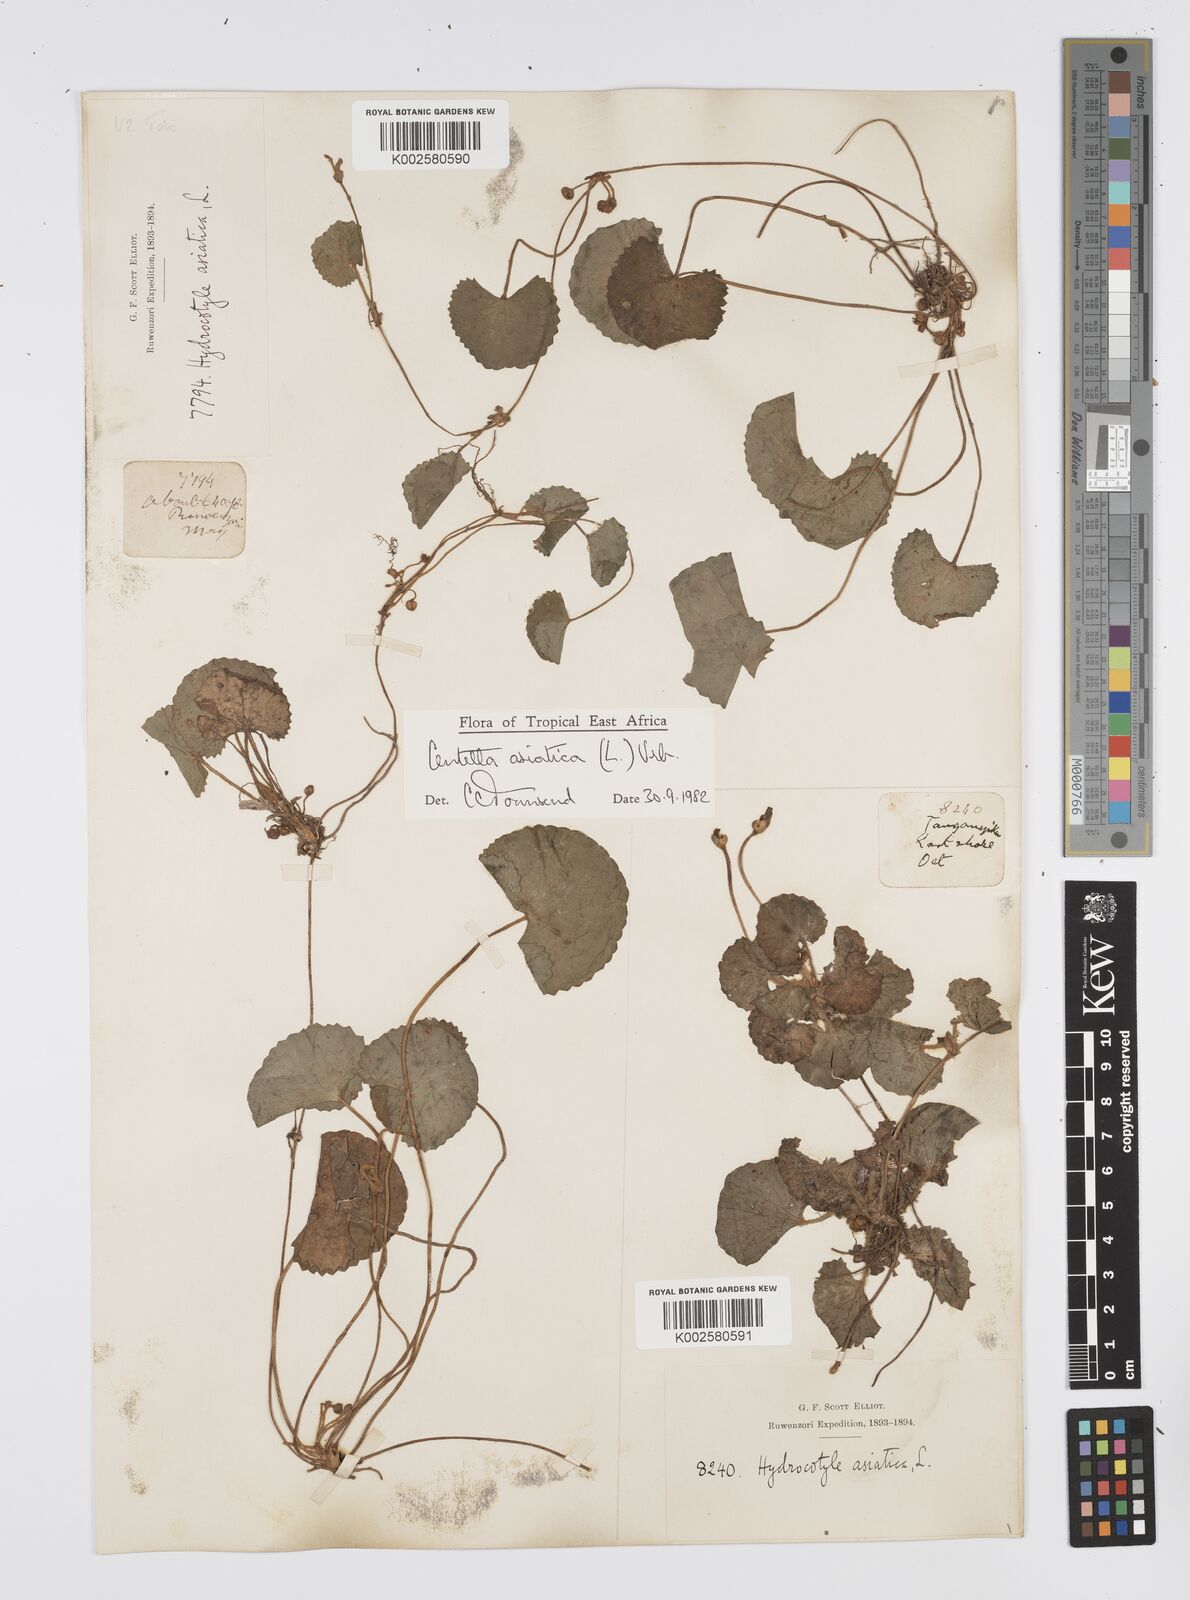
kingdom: Plantae
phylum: Tracheophyta
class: Magnoliopsida
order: Apiales
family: Apiaceae
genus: Centella
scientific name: Centella asiatica
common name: Spadeleaf
